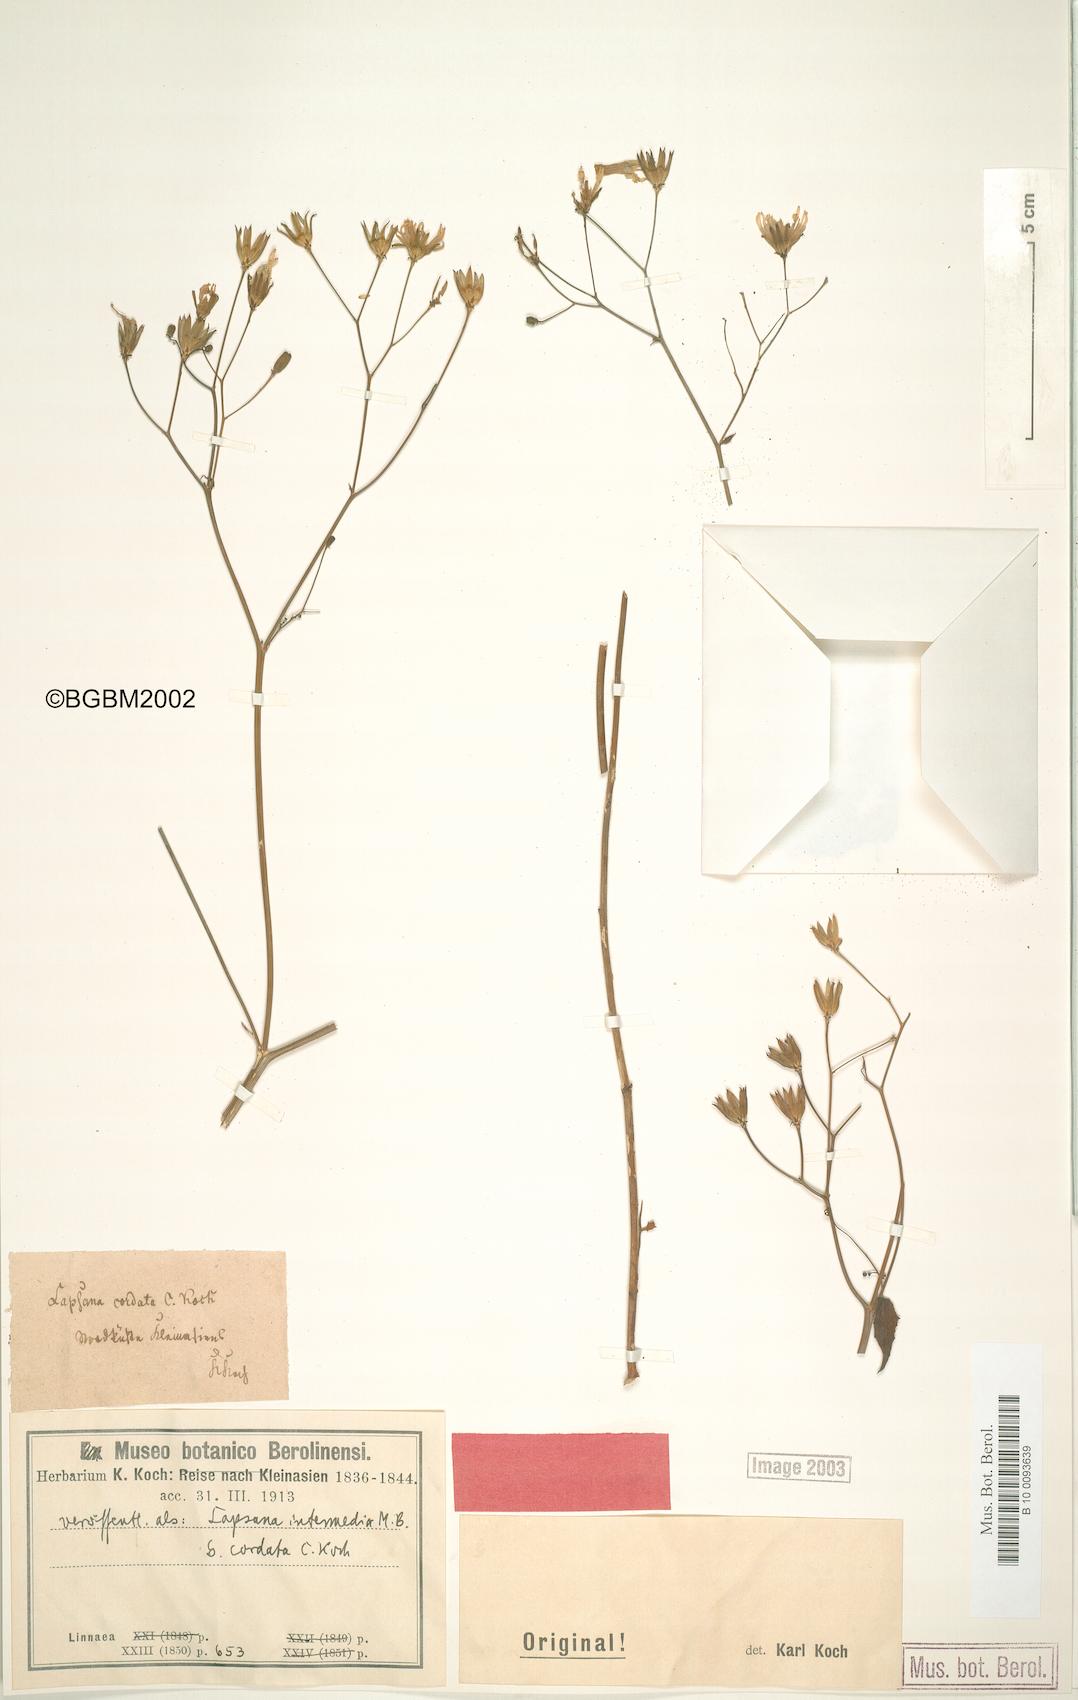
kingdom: Plantae
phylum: Tracheophyta
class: Magnoliopsida
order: Asterales
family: Asteraceae
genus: Lapsana
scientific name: Lapsana communis
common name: Nipplewort
